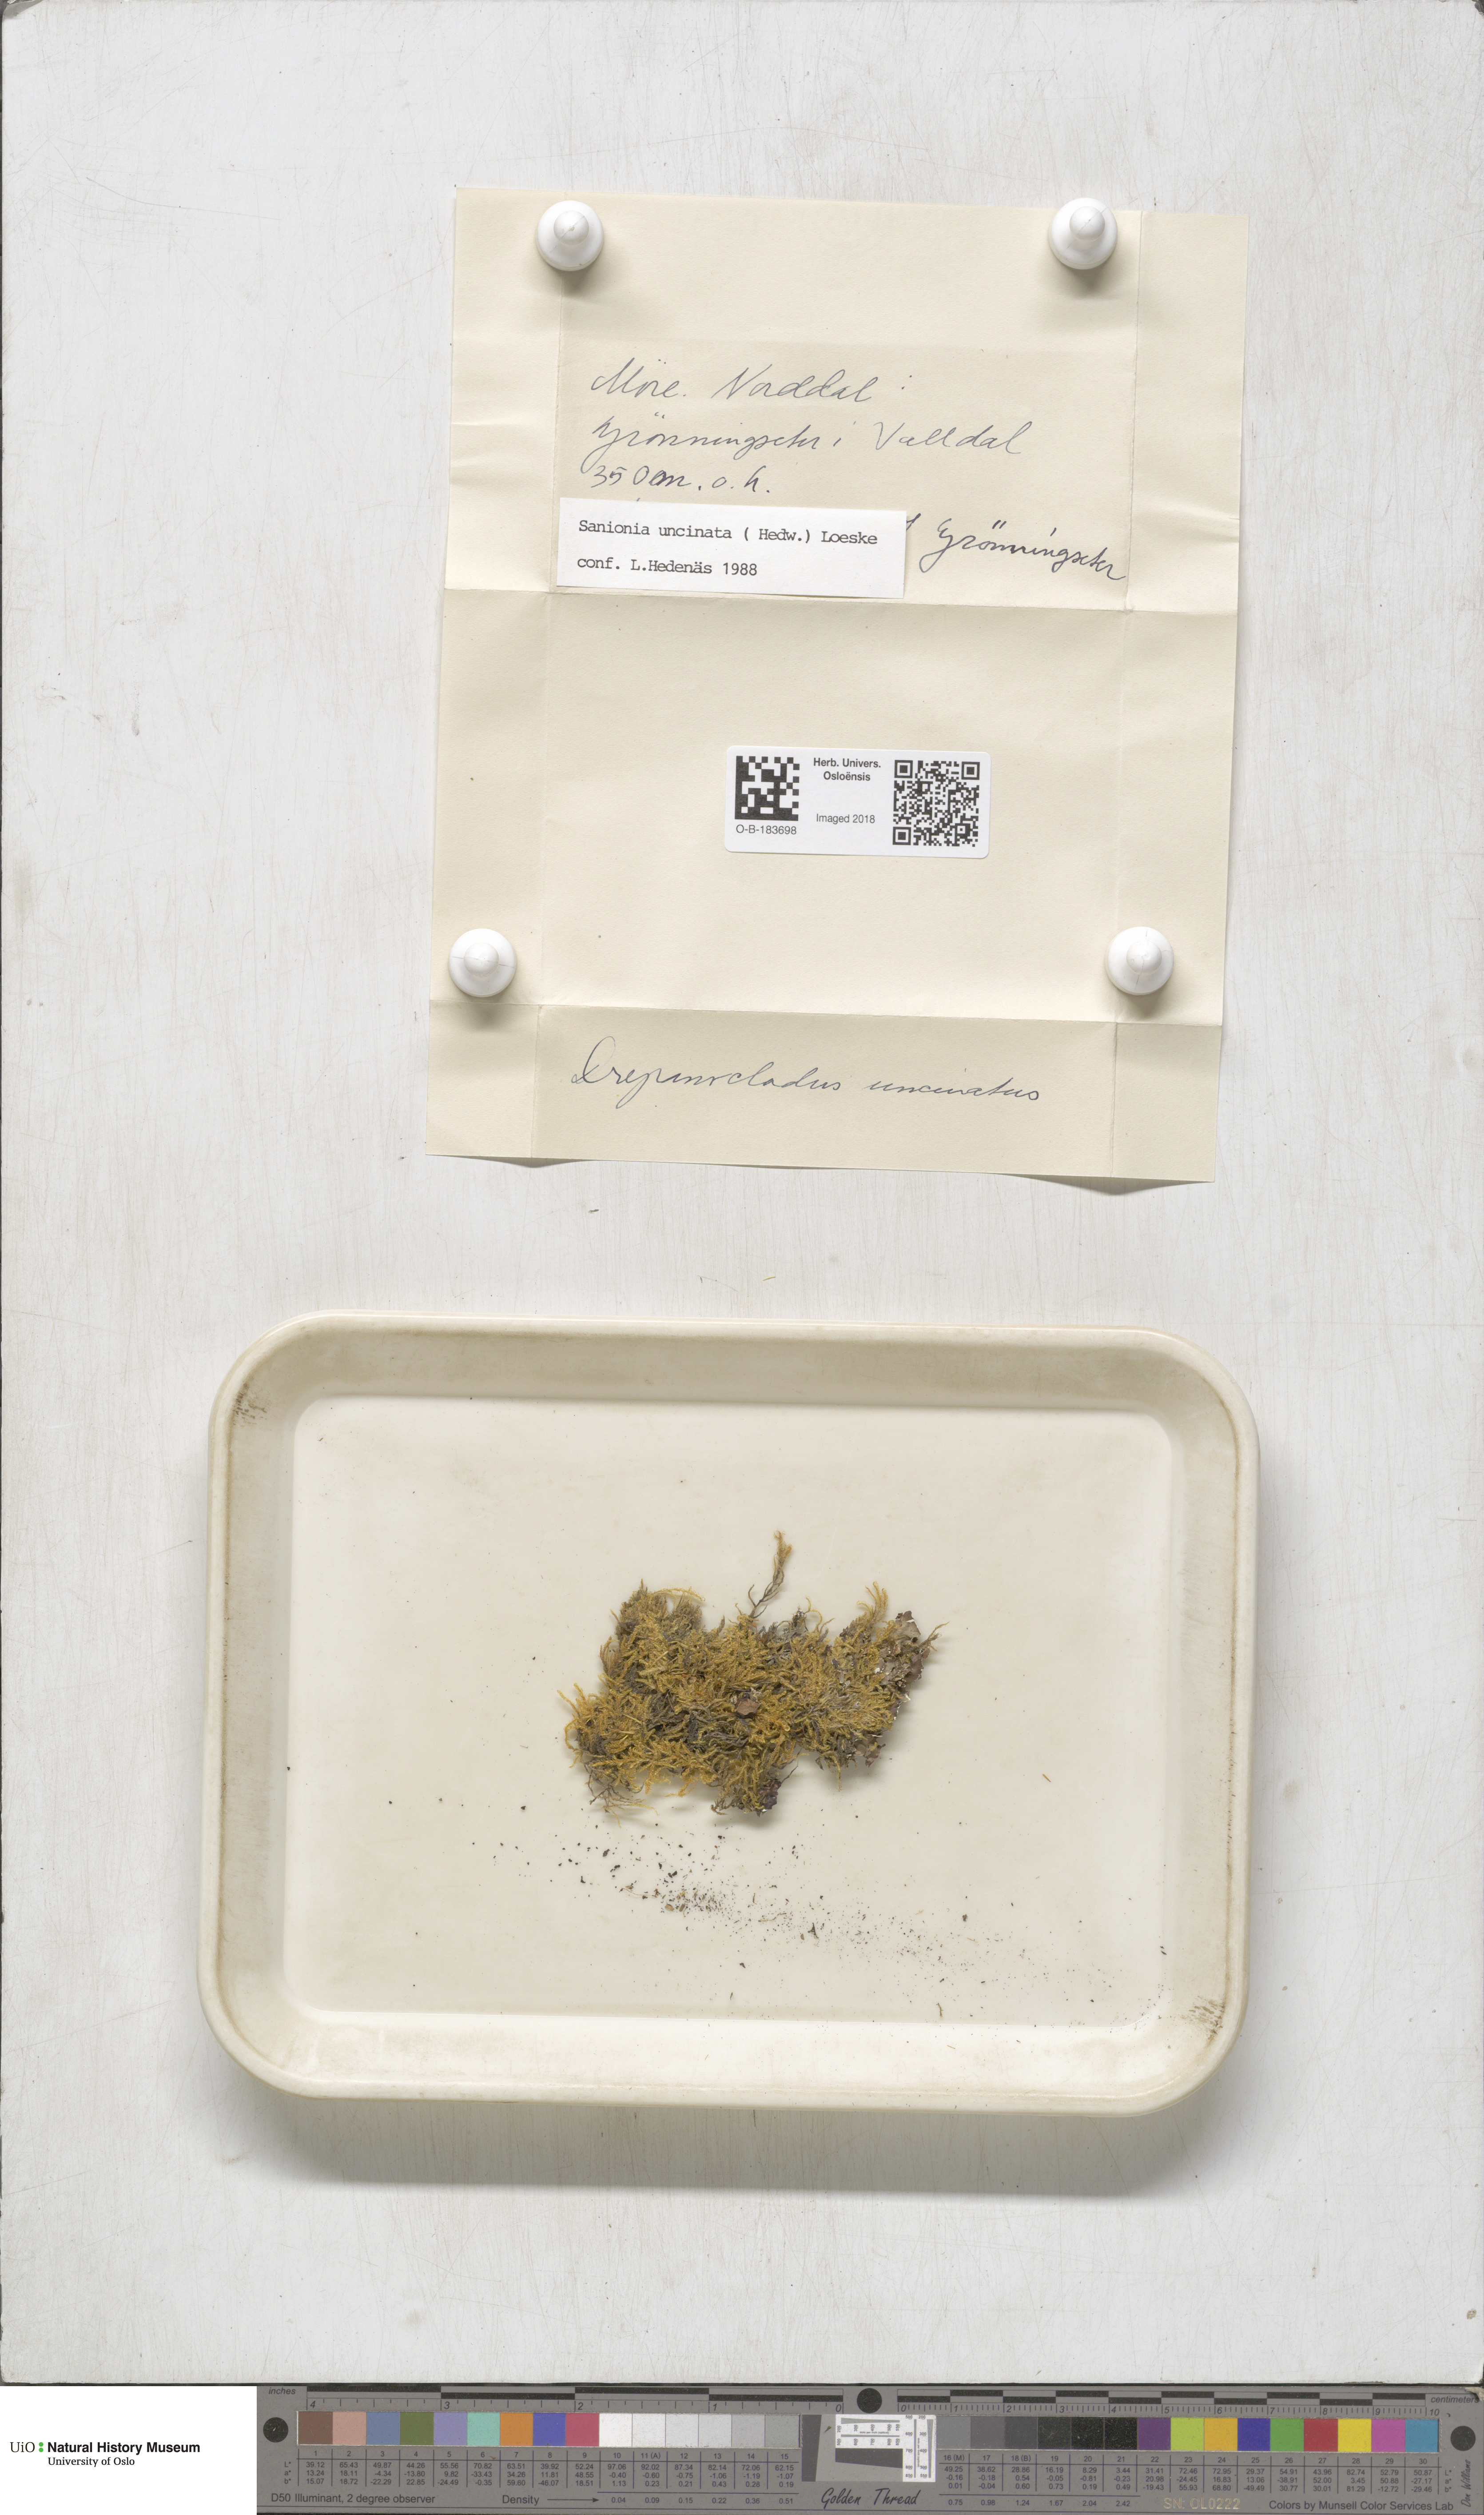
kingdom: Plantae
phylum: Bryophyta
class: Bryopsida
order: Hypnales
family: Scorpidiaceae
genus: Sanionia
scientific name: Sanionia uncinata
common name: Sickle moss
